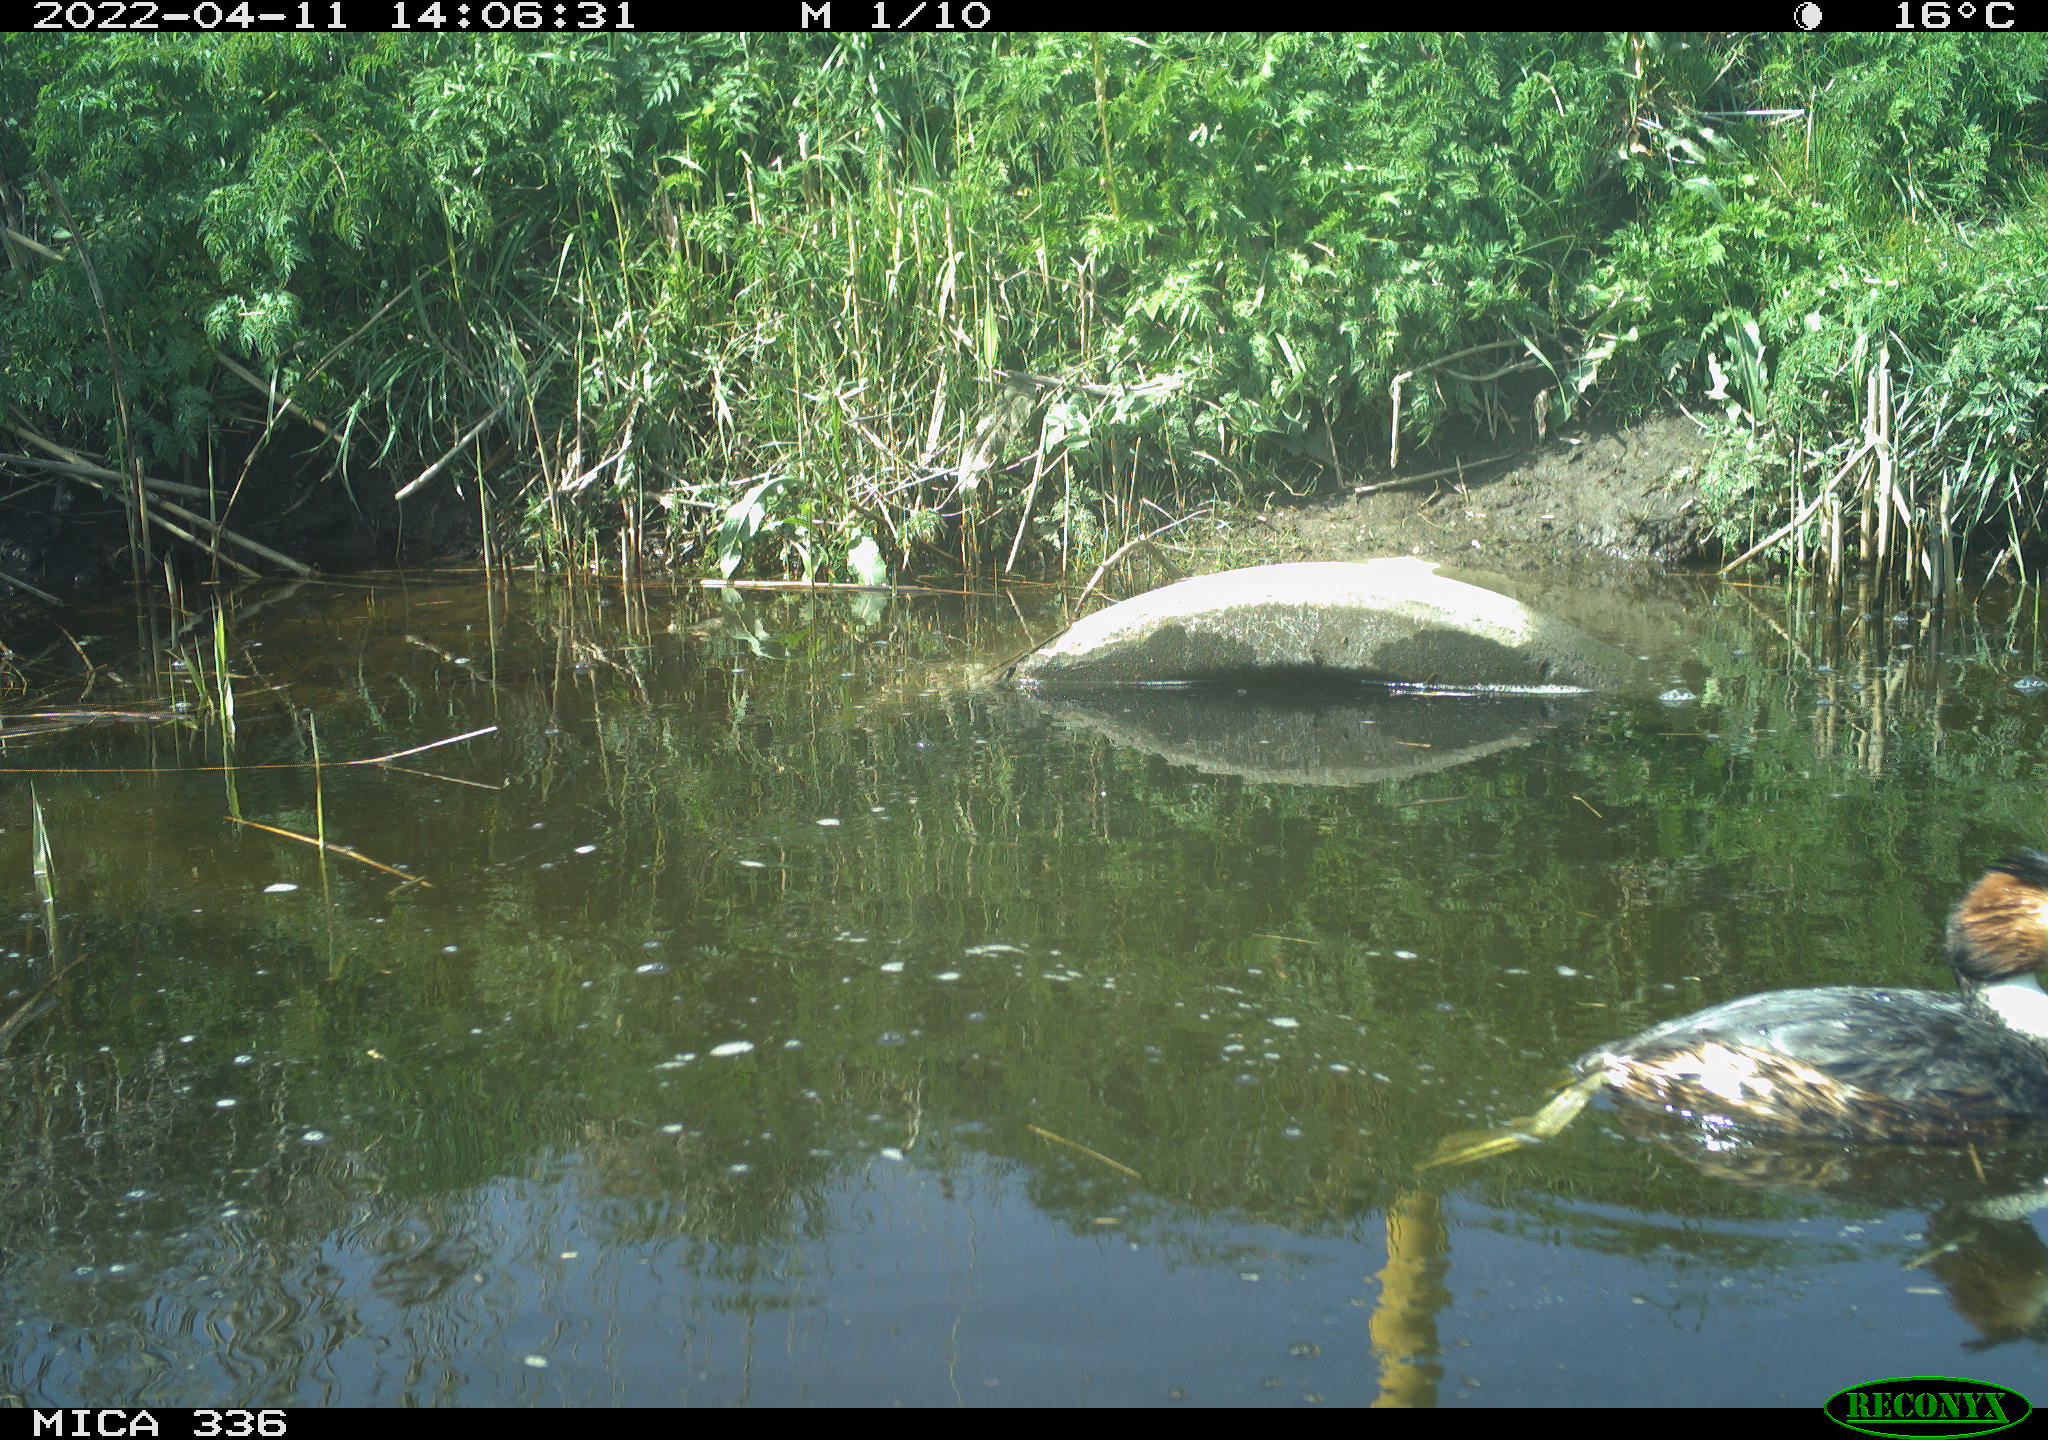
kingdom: Animalia
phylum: Chordata
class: Aves
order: Podicipediformes
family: Podicipedidae
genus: Podiceps
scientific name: Podiceps cristatus
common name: Great crested grebe
